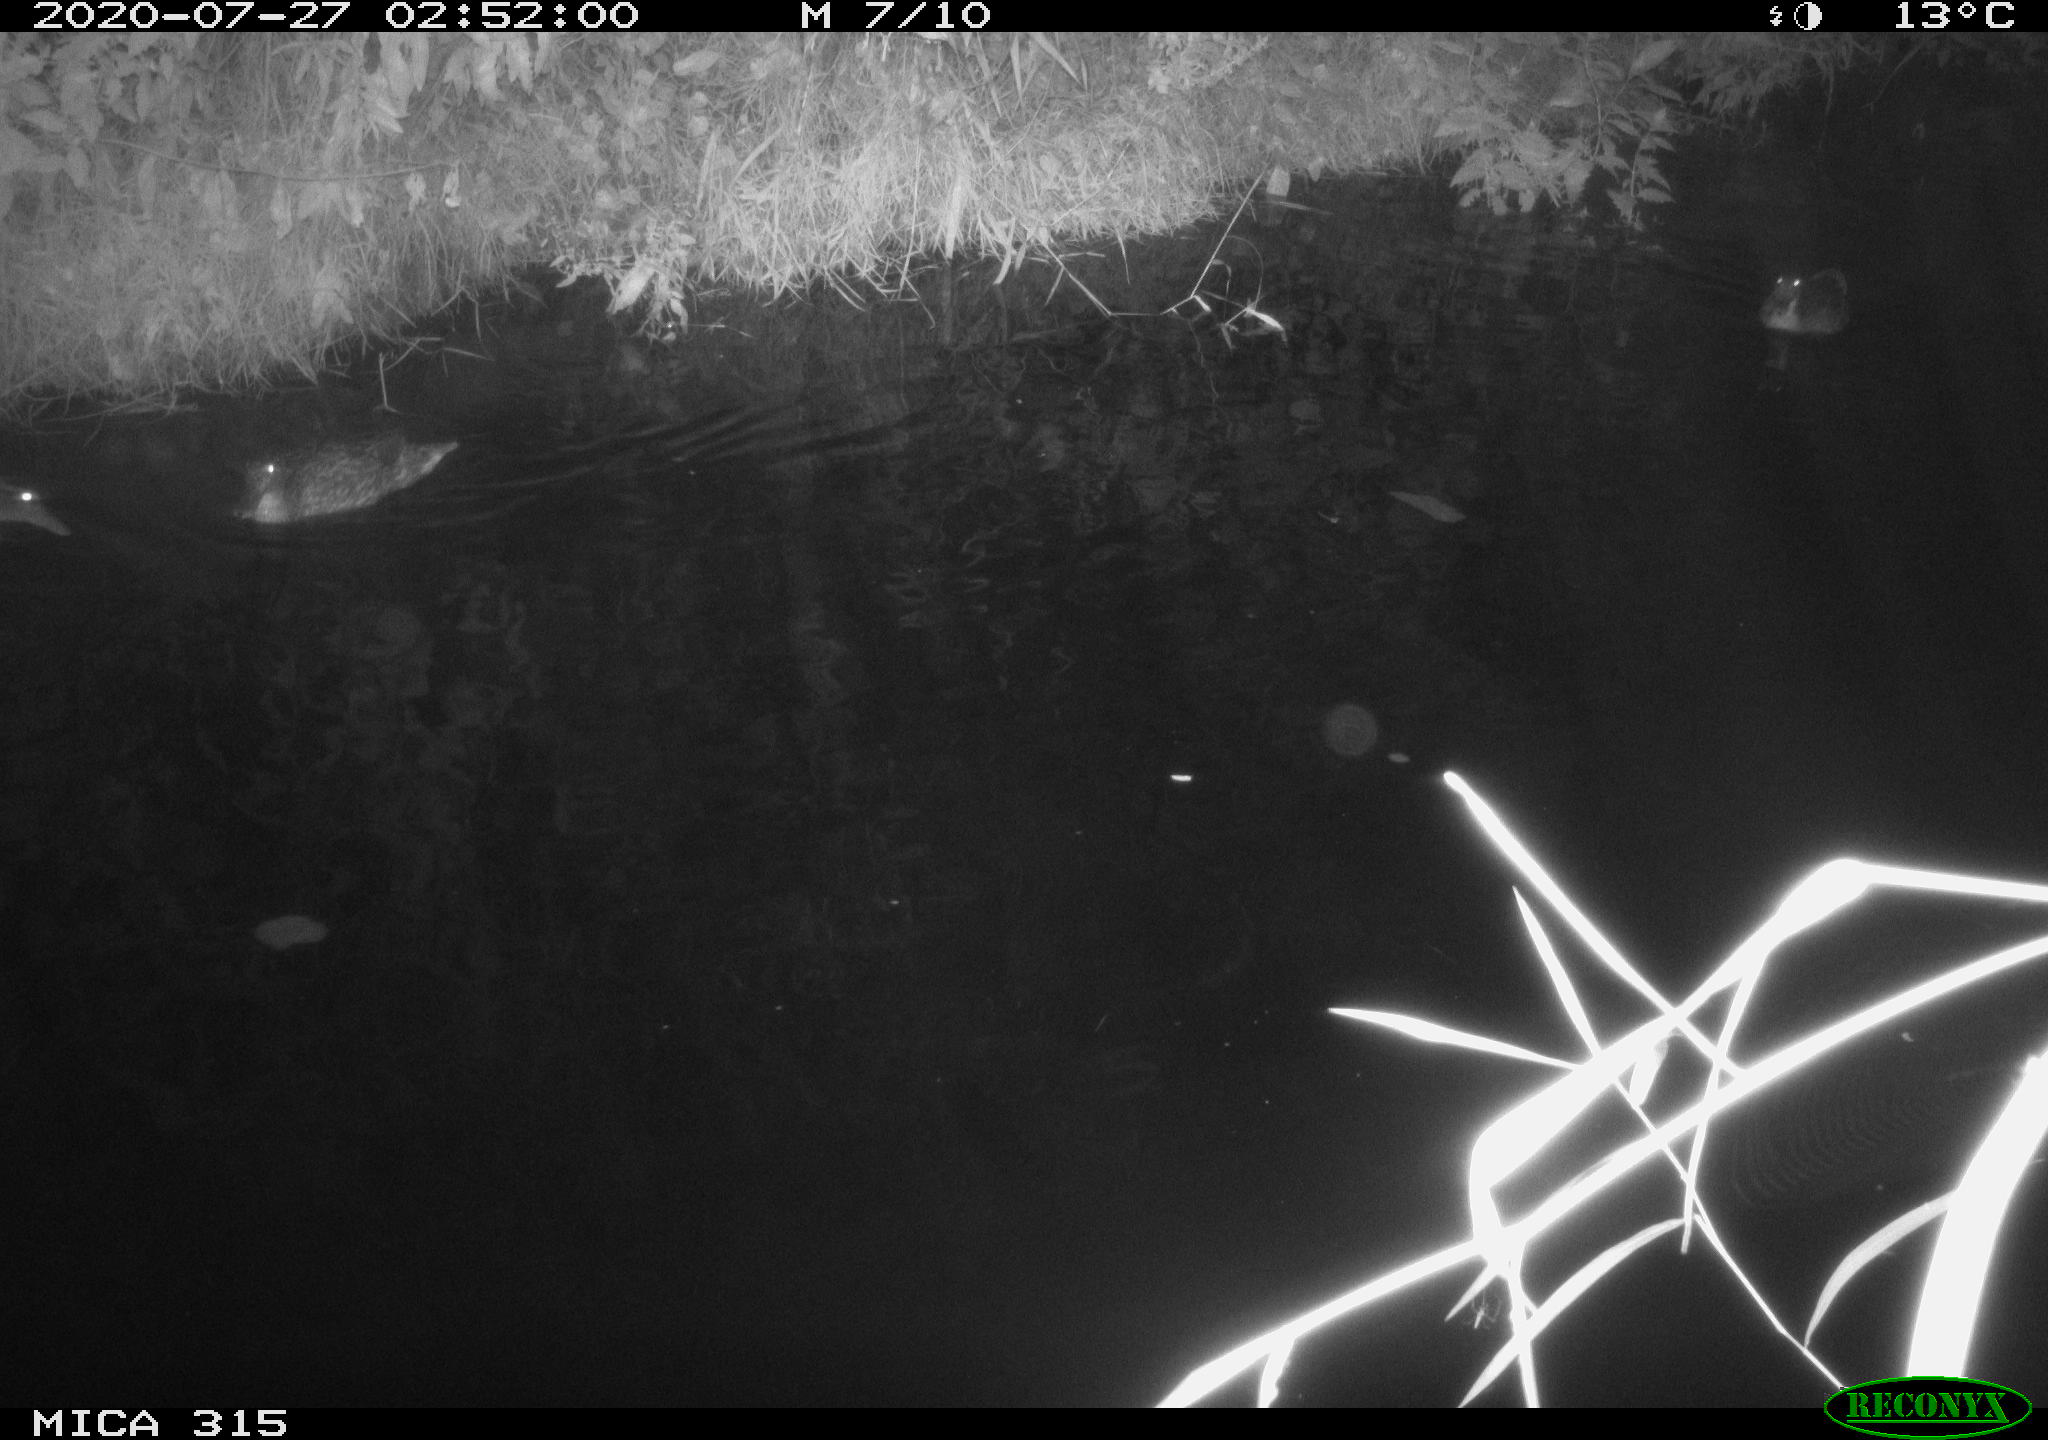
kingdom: Animalia
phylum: Chordata
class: Aves
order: Anseriformes
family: Anatidae
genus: Anas
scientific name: Anas platyrhynchos
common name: Mallard
